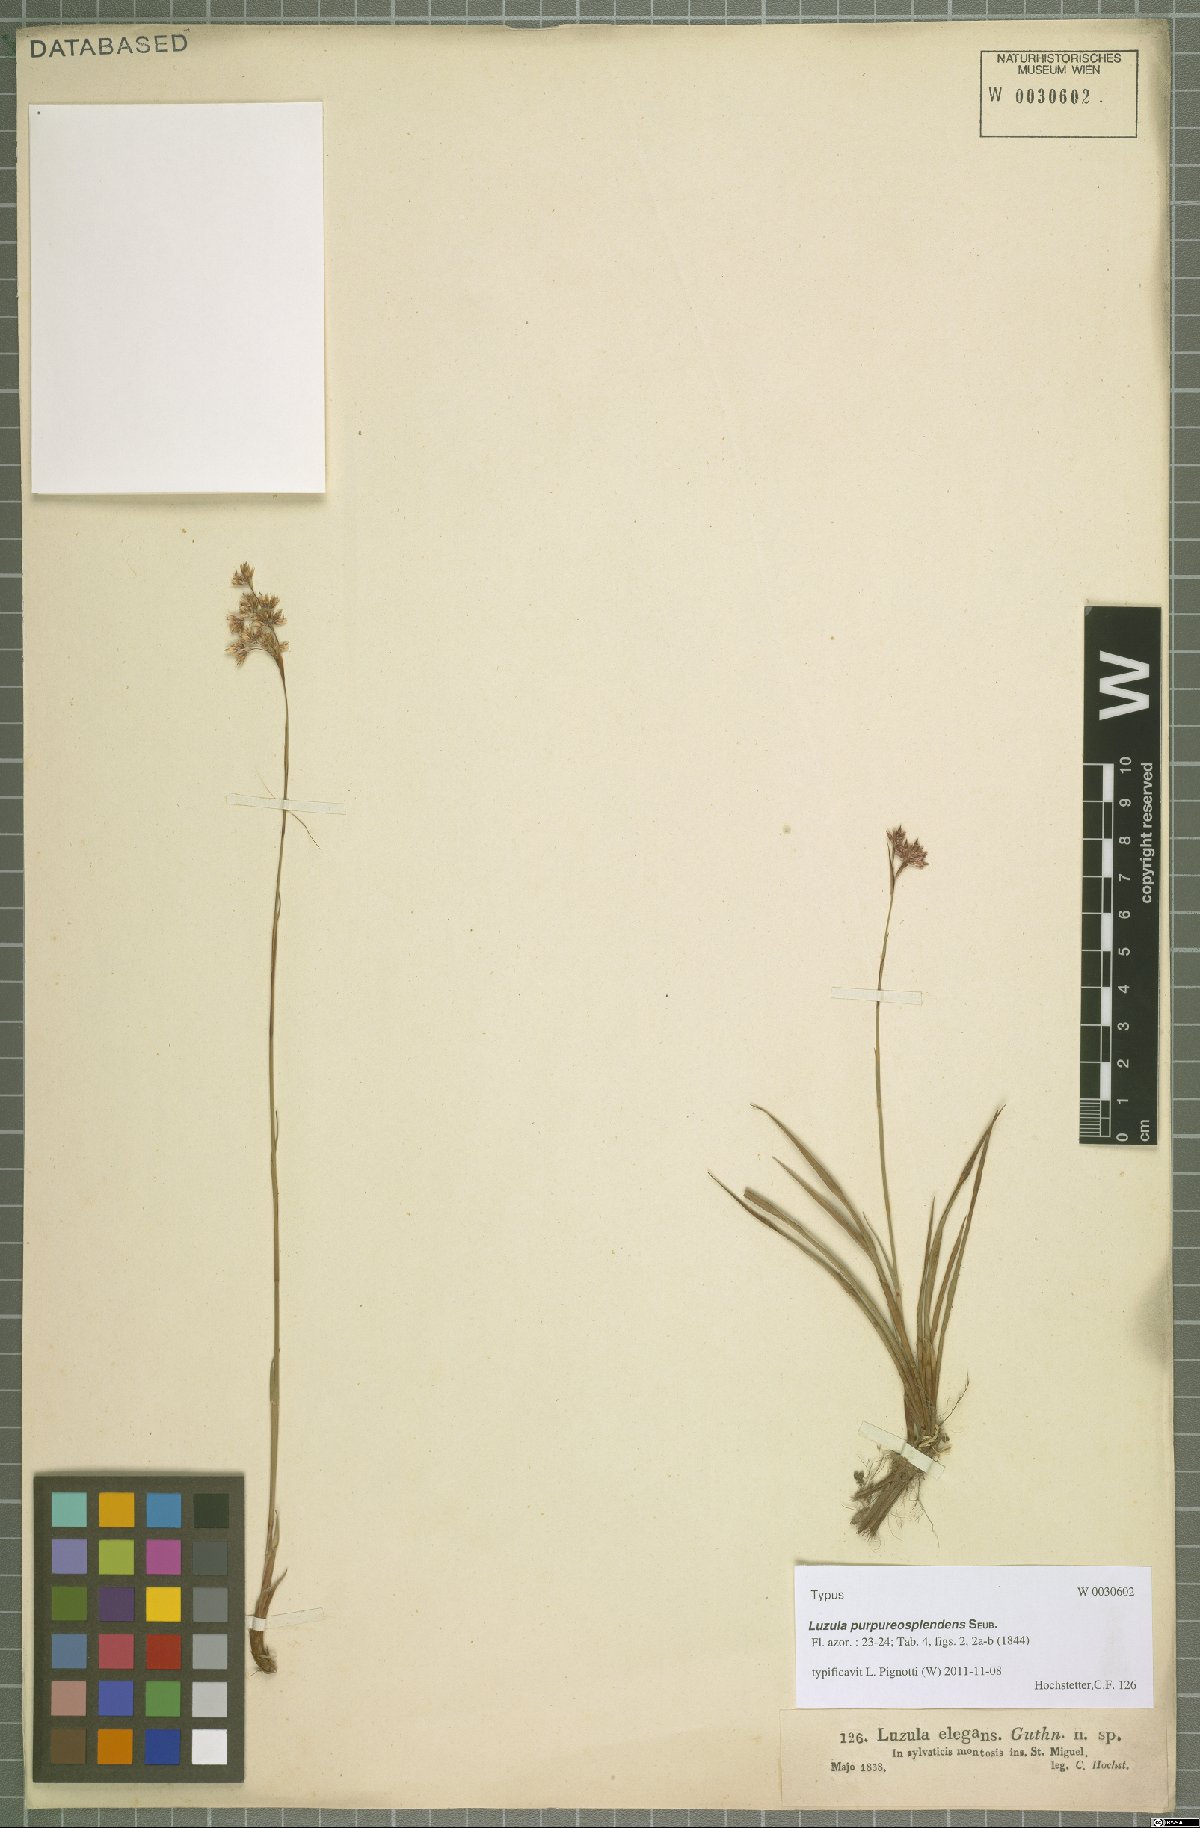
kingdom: Plantae
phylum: Tracheophyta
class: Liliopsida
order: Poales
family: Juncaceae
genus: Luzula
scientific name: Luzula purpureosplendens
